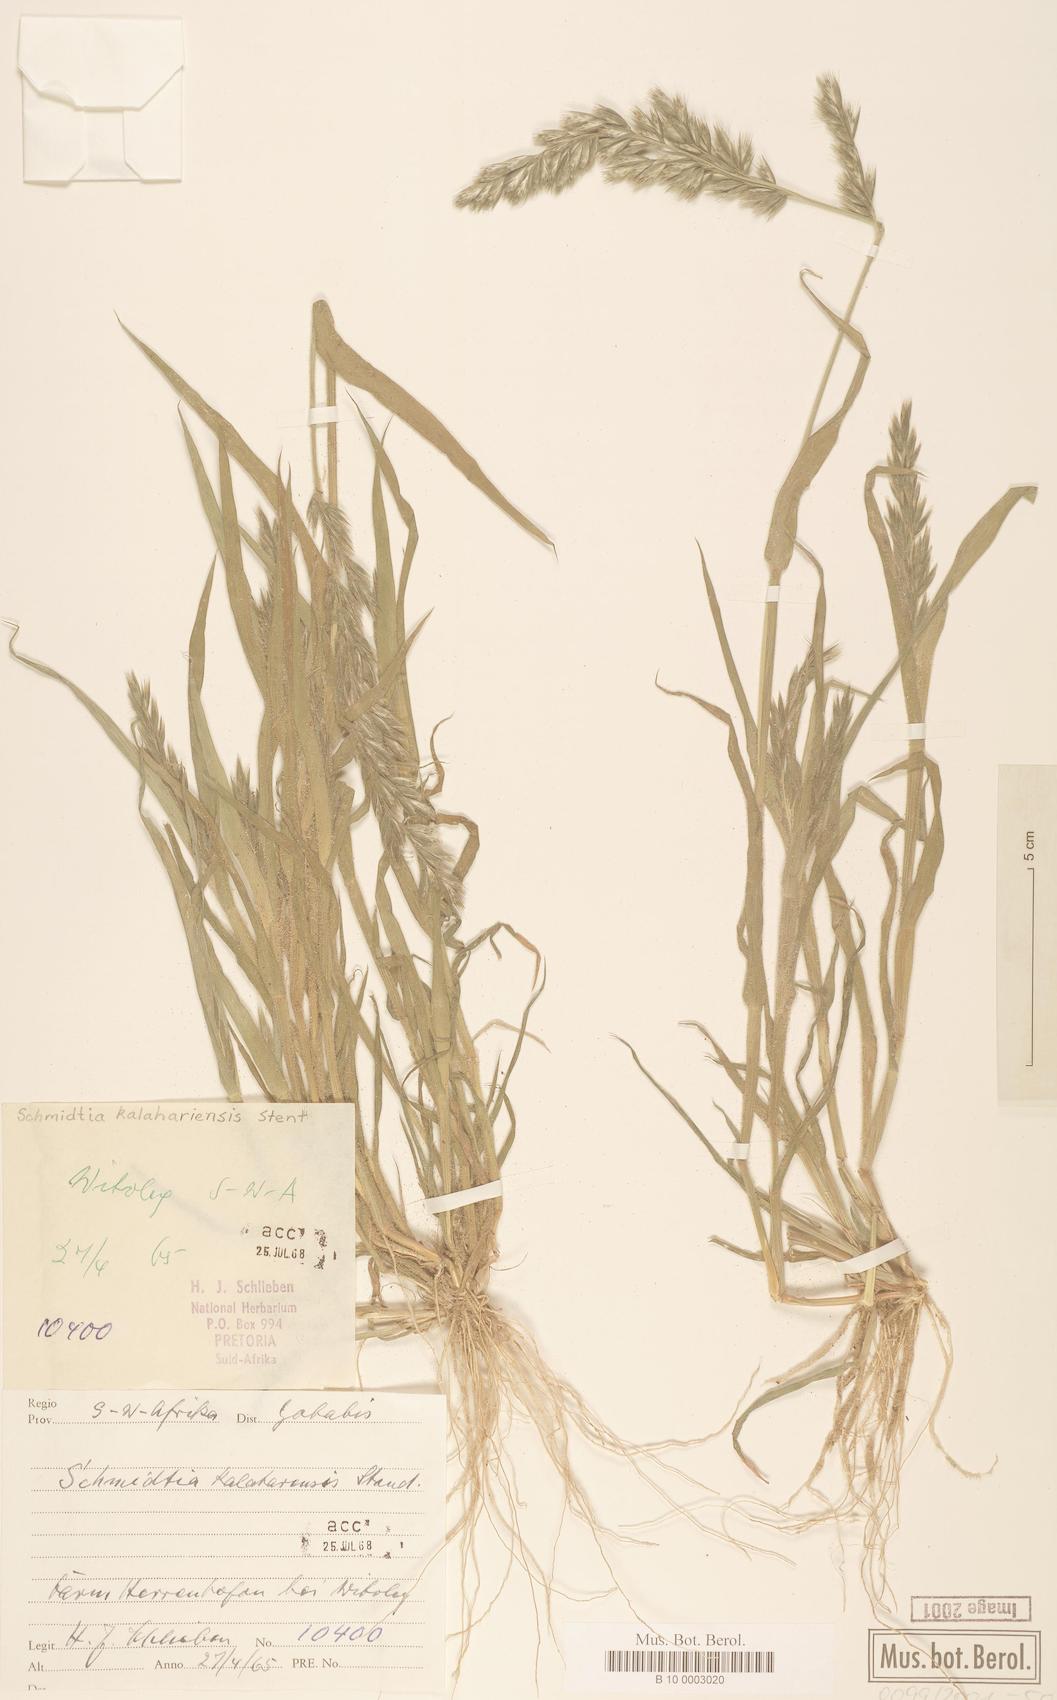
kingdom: Plantae
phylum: Tracheophyta
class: Liliopsida
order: Poales
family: Poaceae
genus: Schmidtia
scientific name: Schmidtia kalahariensis
